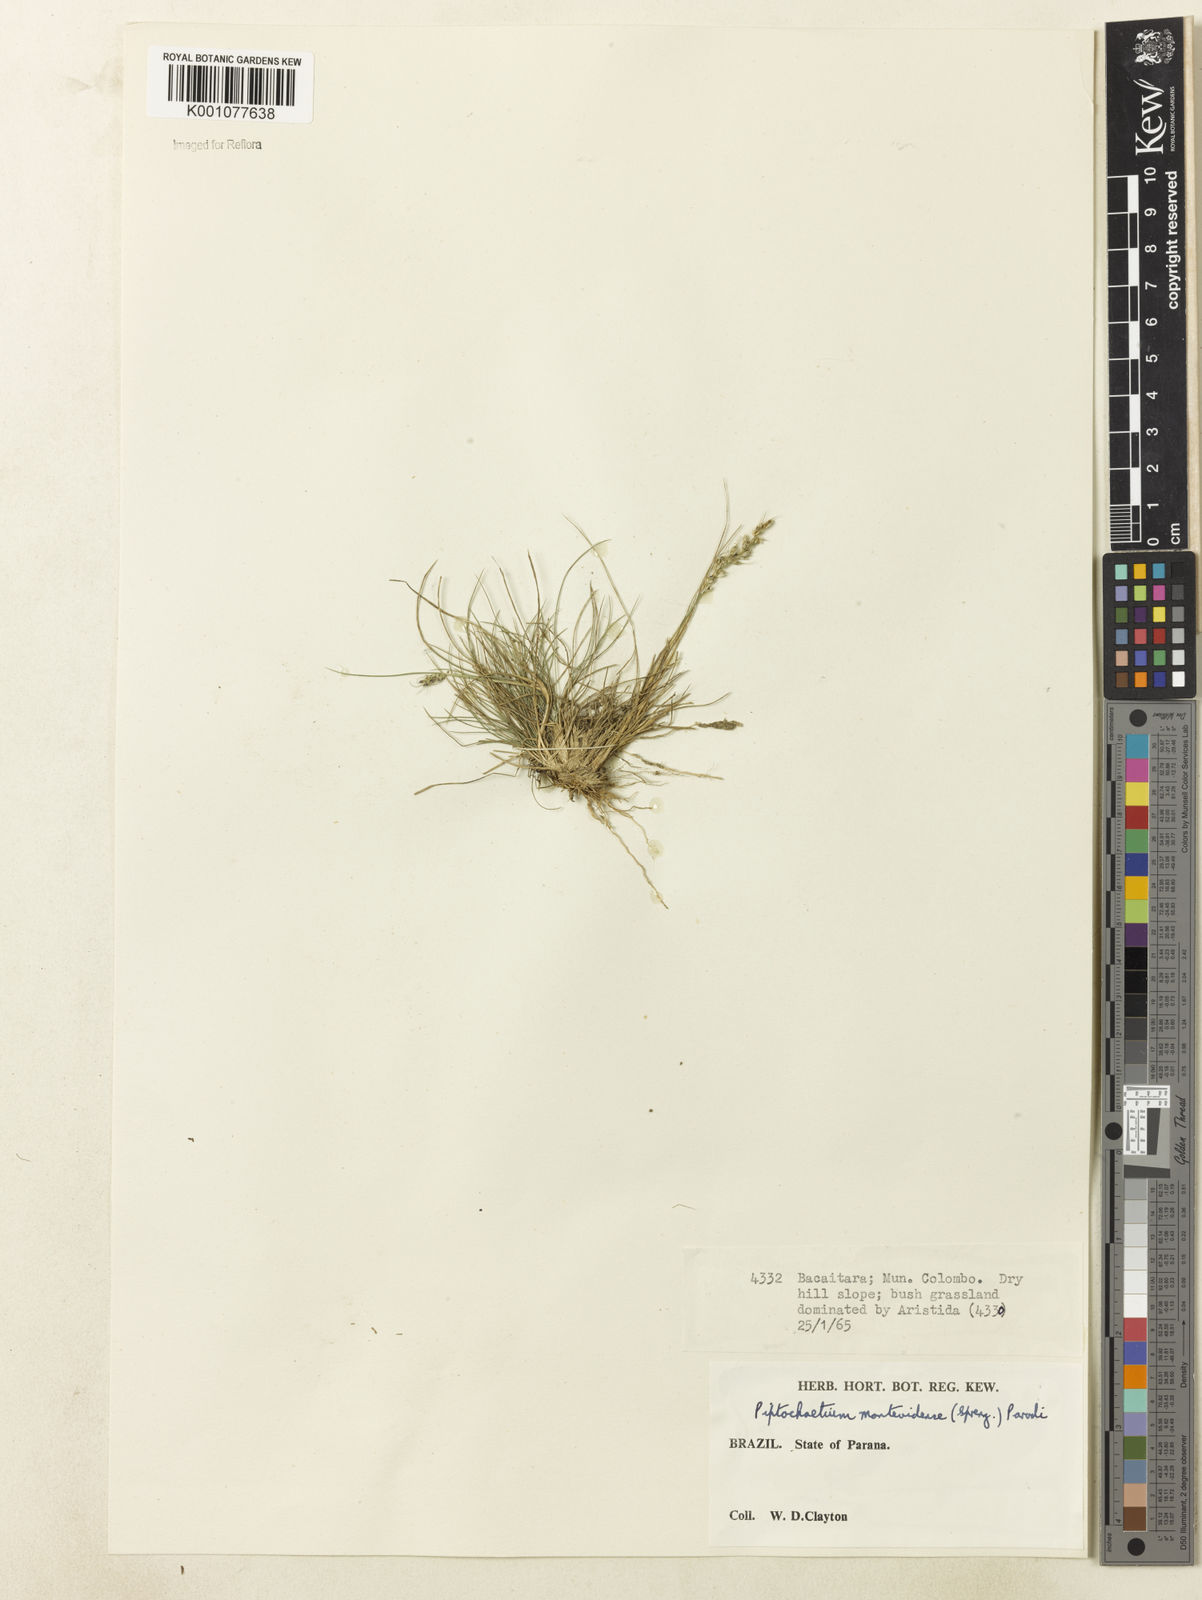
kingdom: Plantae
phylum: Tracheophyta
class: Liliopsida
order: Poales
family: Poaceae
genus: Piptochaetium
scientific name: Piptochaetium montevidense
